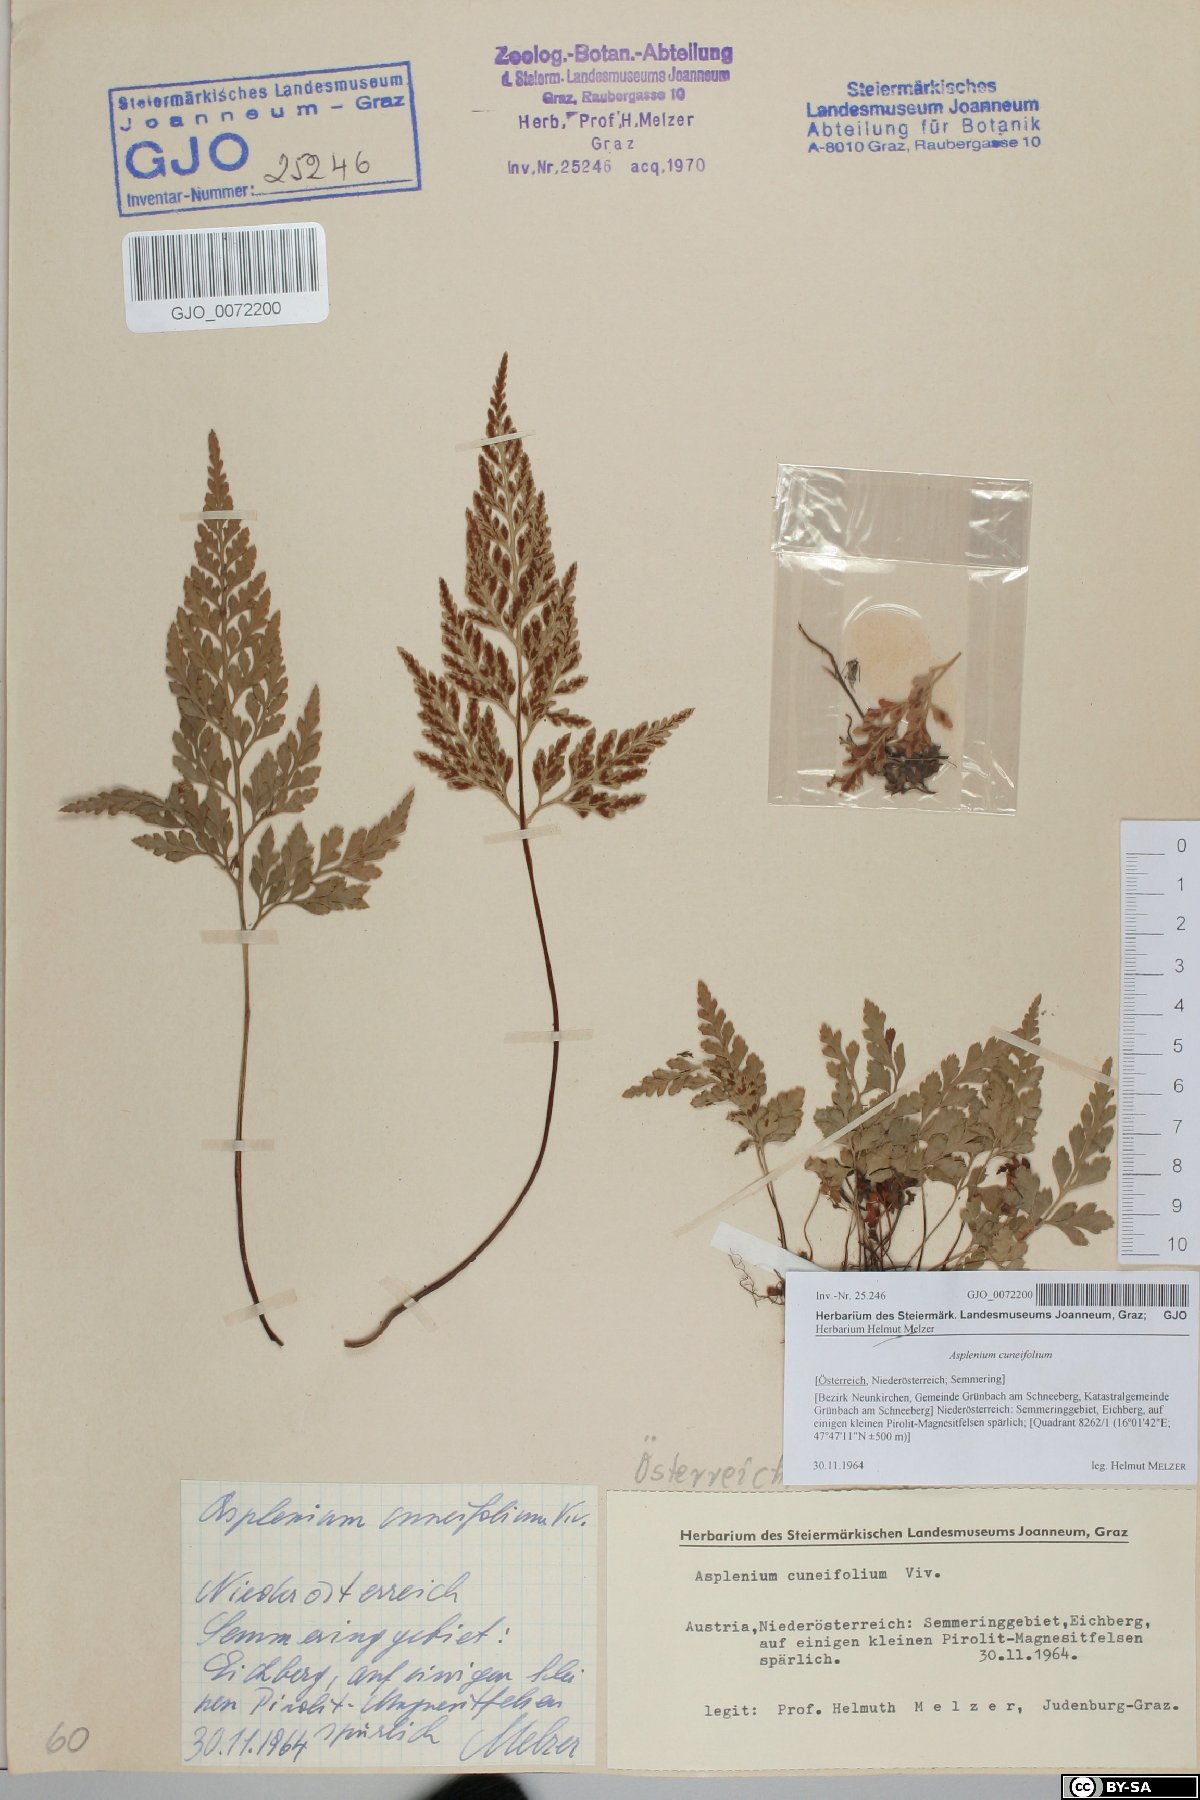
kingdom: Plantae
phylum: Tracheophyta
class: Polypodiopsida
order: Polypodiales
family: Aspleniaceae
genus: Asplenium
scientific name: Asplenium cuneifolium
